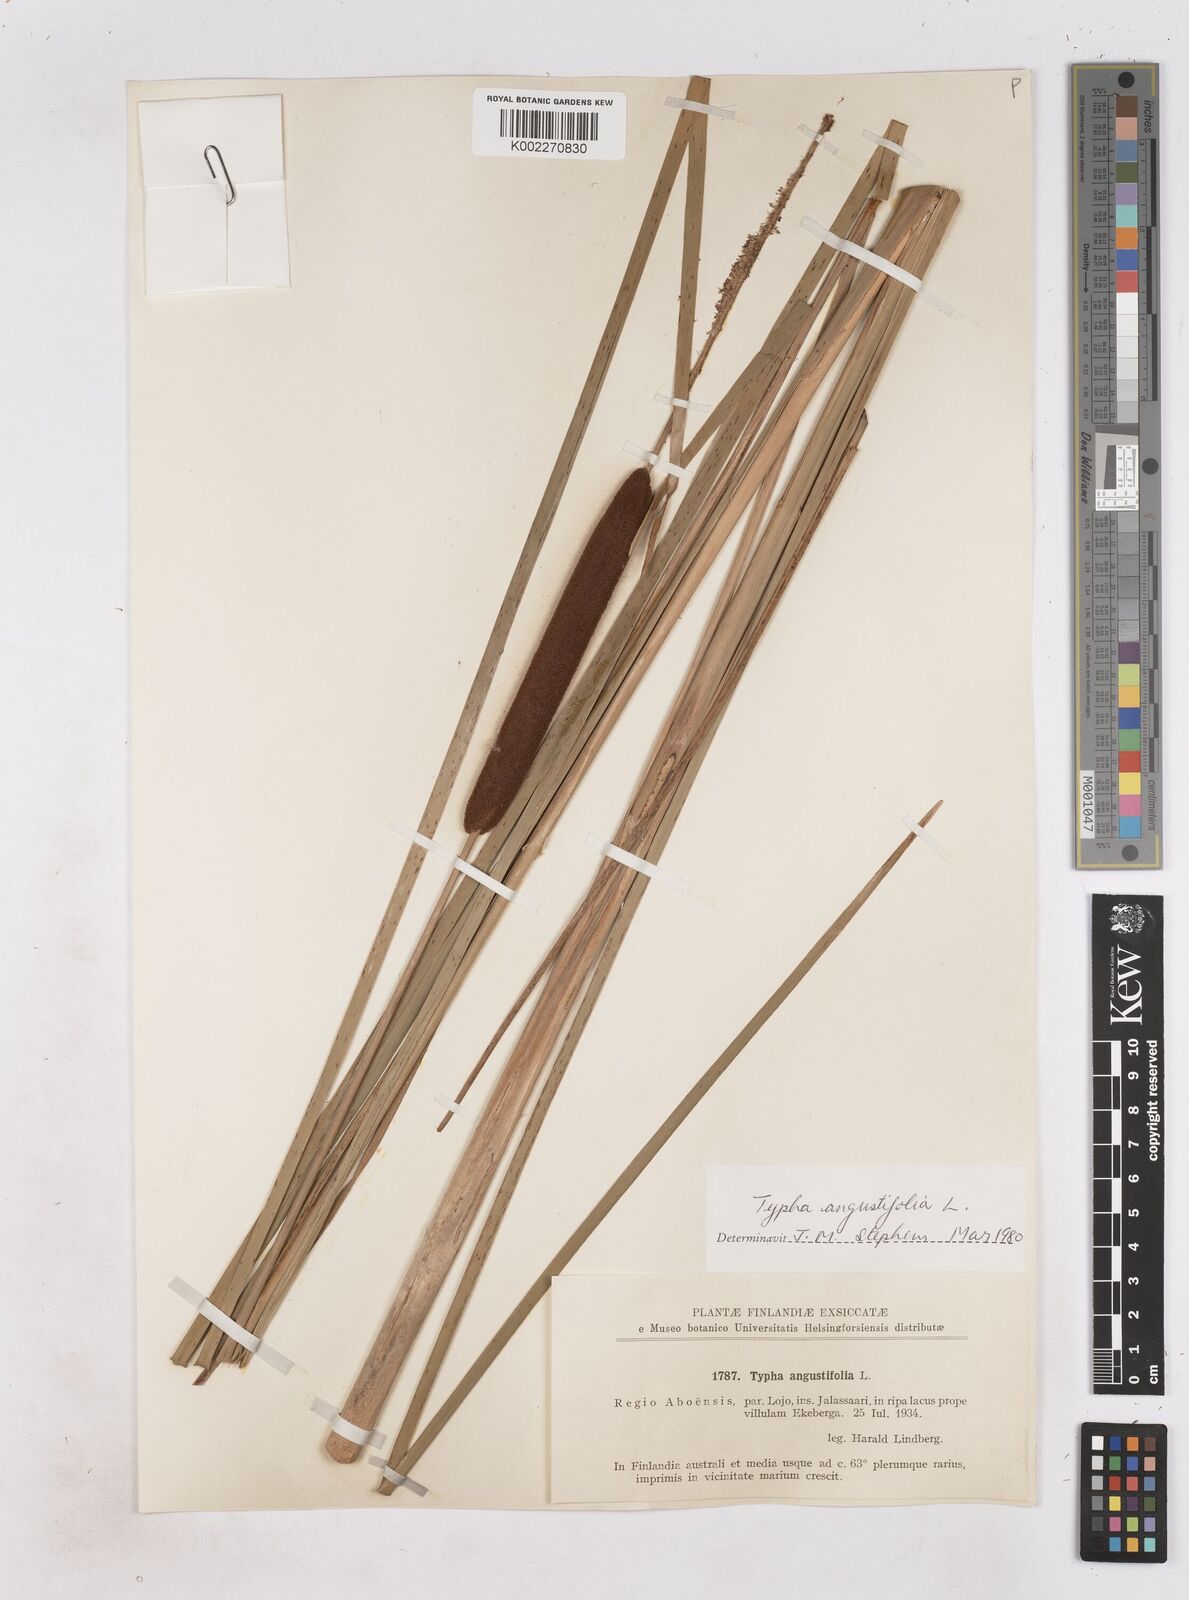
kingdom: Plantae
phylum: Tracheophyta
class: Liliopsida
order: Poales
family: Typhaceae
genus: Typha
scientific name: Typha angustifolia
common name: Lesser bulrush
